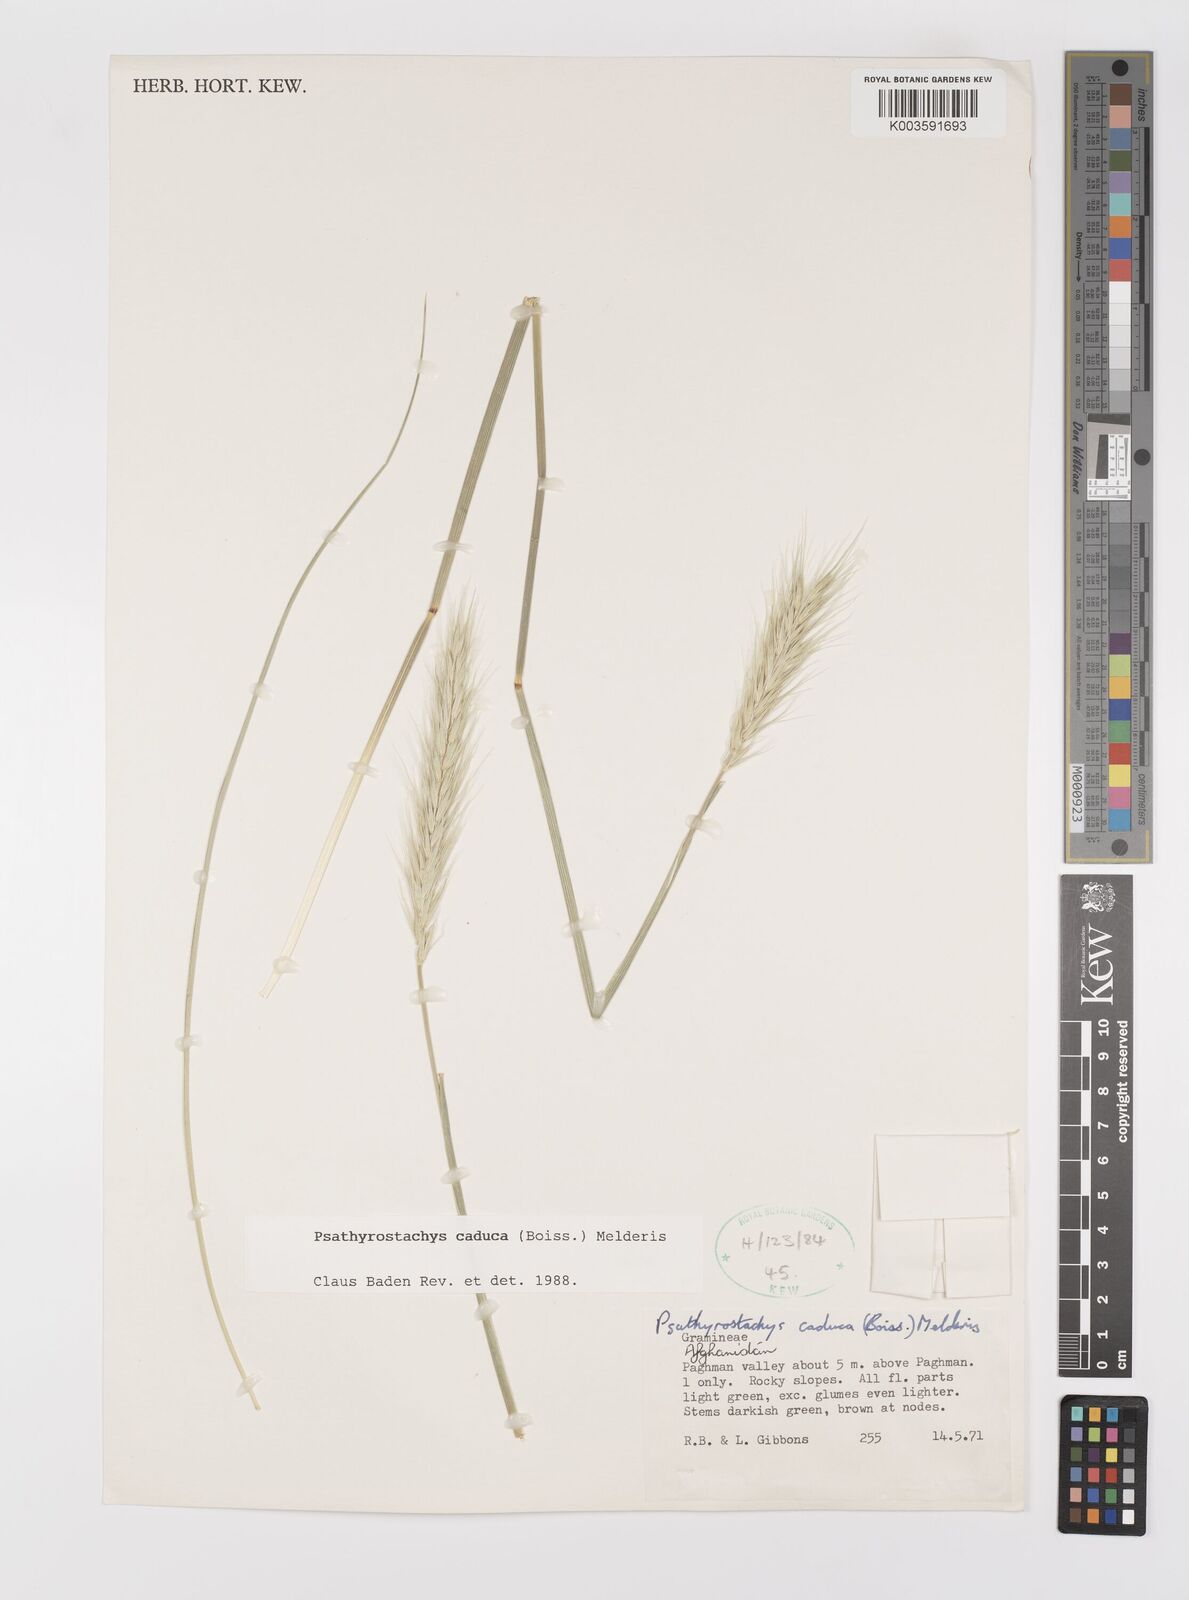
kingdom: Plantae
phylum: Tracheophyta
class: Liliopsida
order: Poales
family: Poaceae
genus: Psathyrostachys
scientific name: Psathyrostachys caduca
